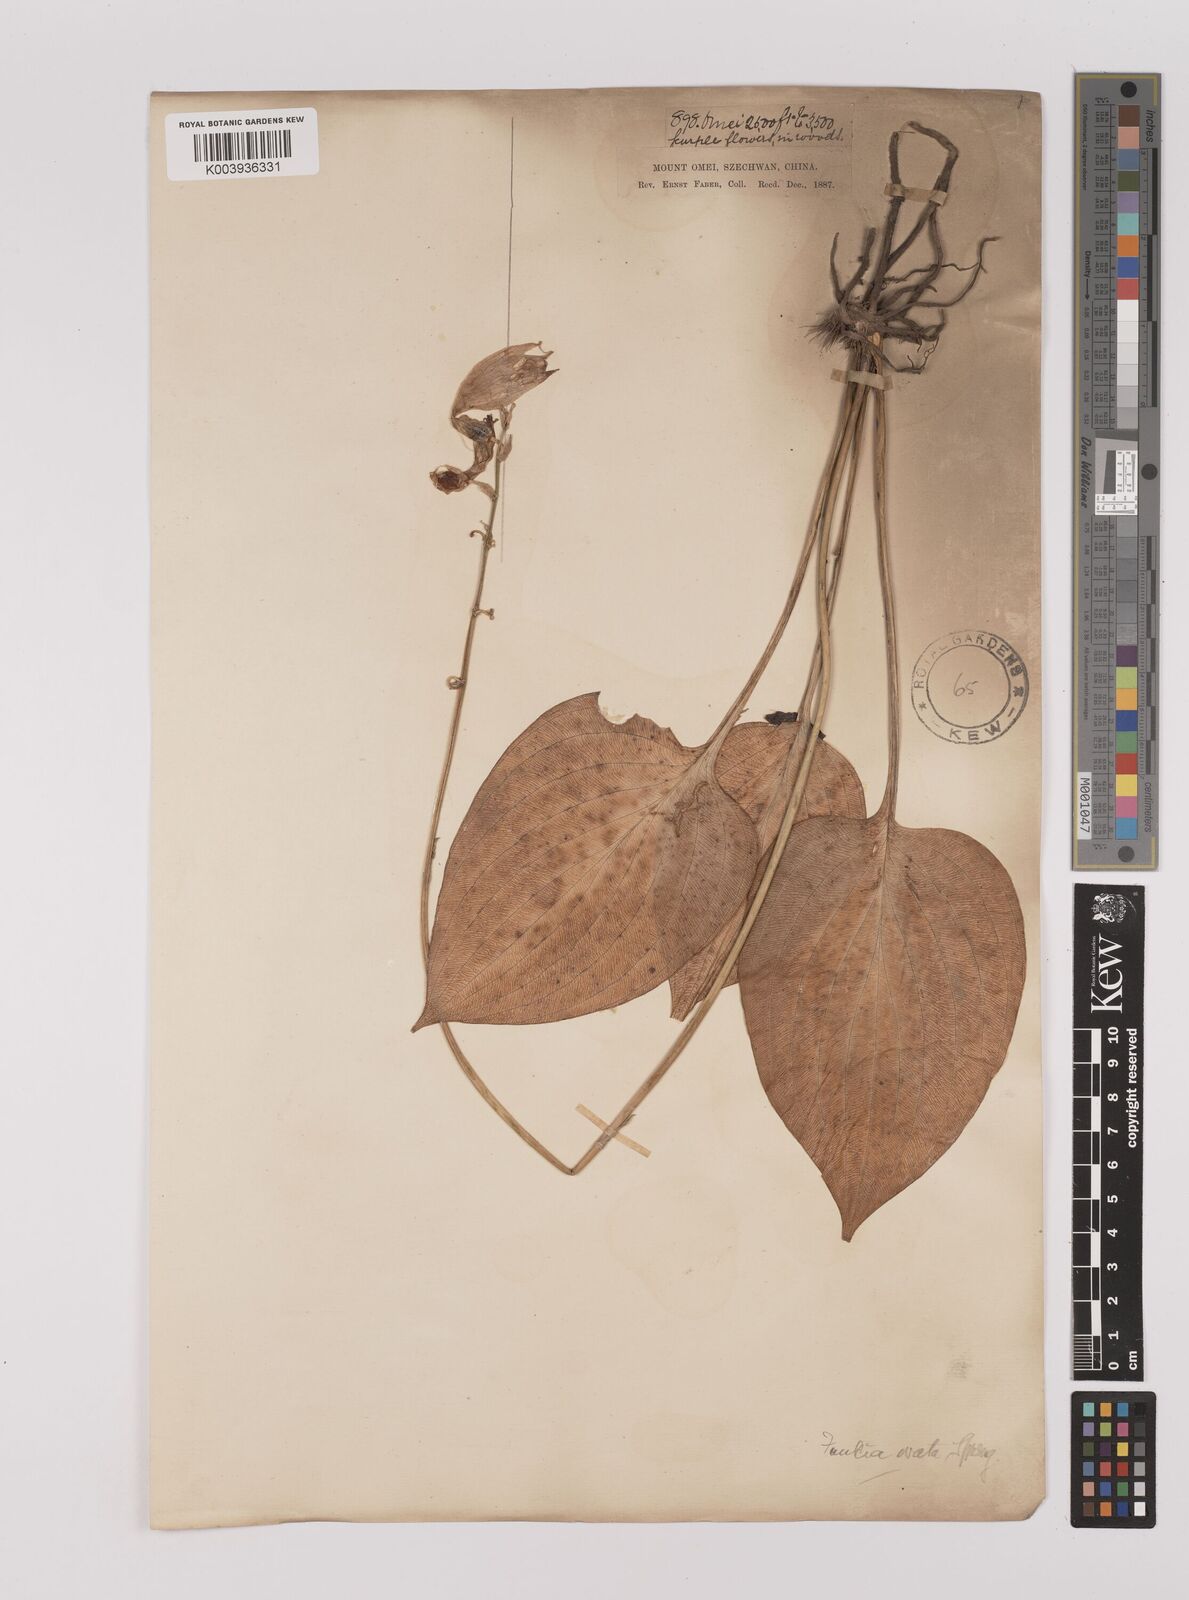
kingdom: Plantae
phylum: Tracheophyta
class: Liliopsida
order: Asparagales
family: Asparagaceae
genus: Hosta
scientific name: Hosta ventricosa
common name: Blue plantain-lily
